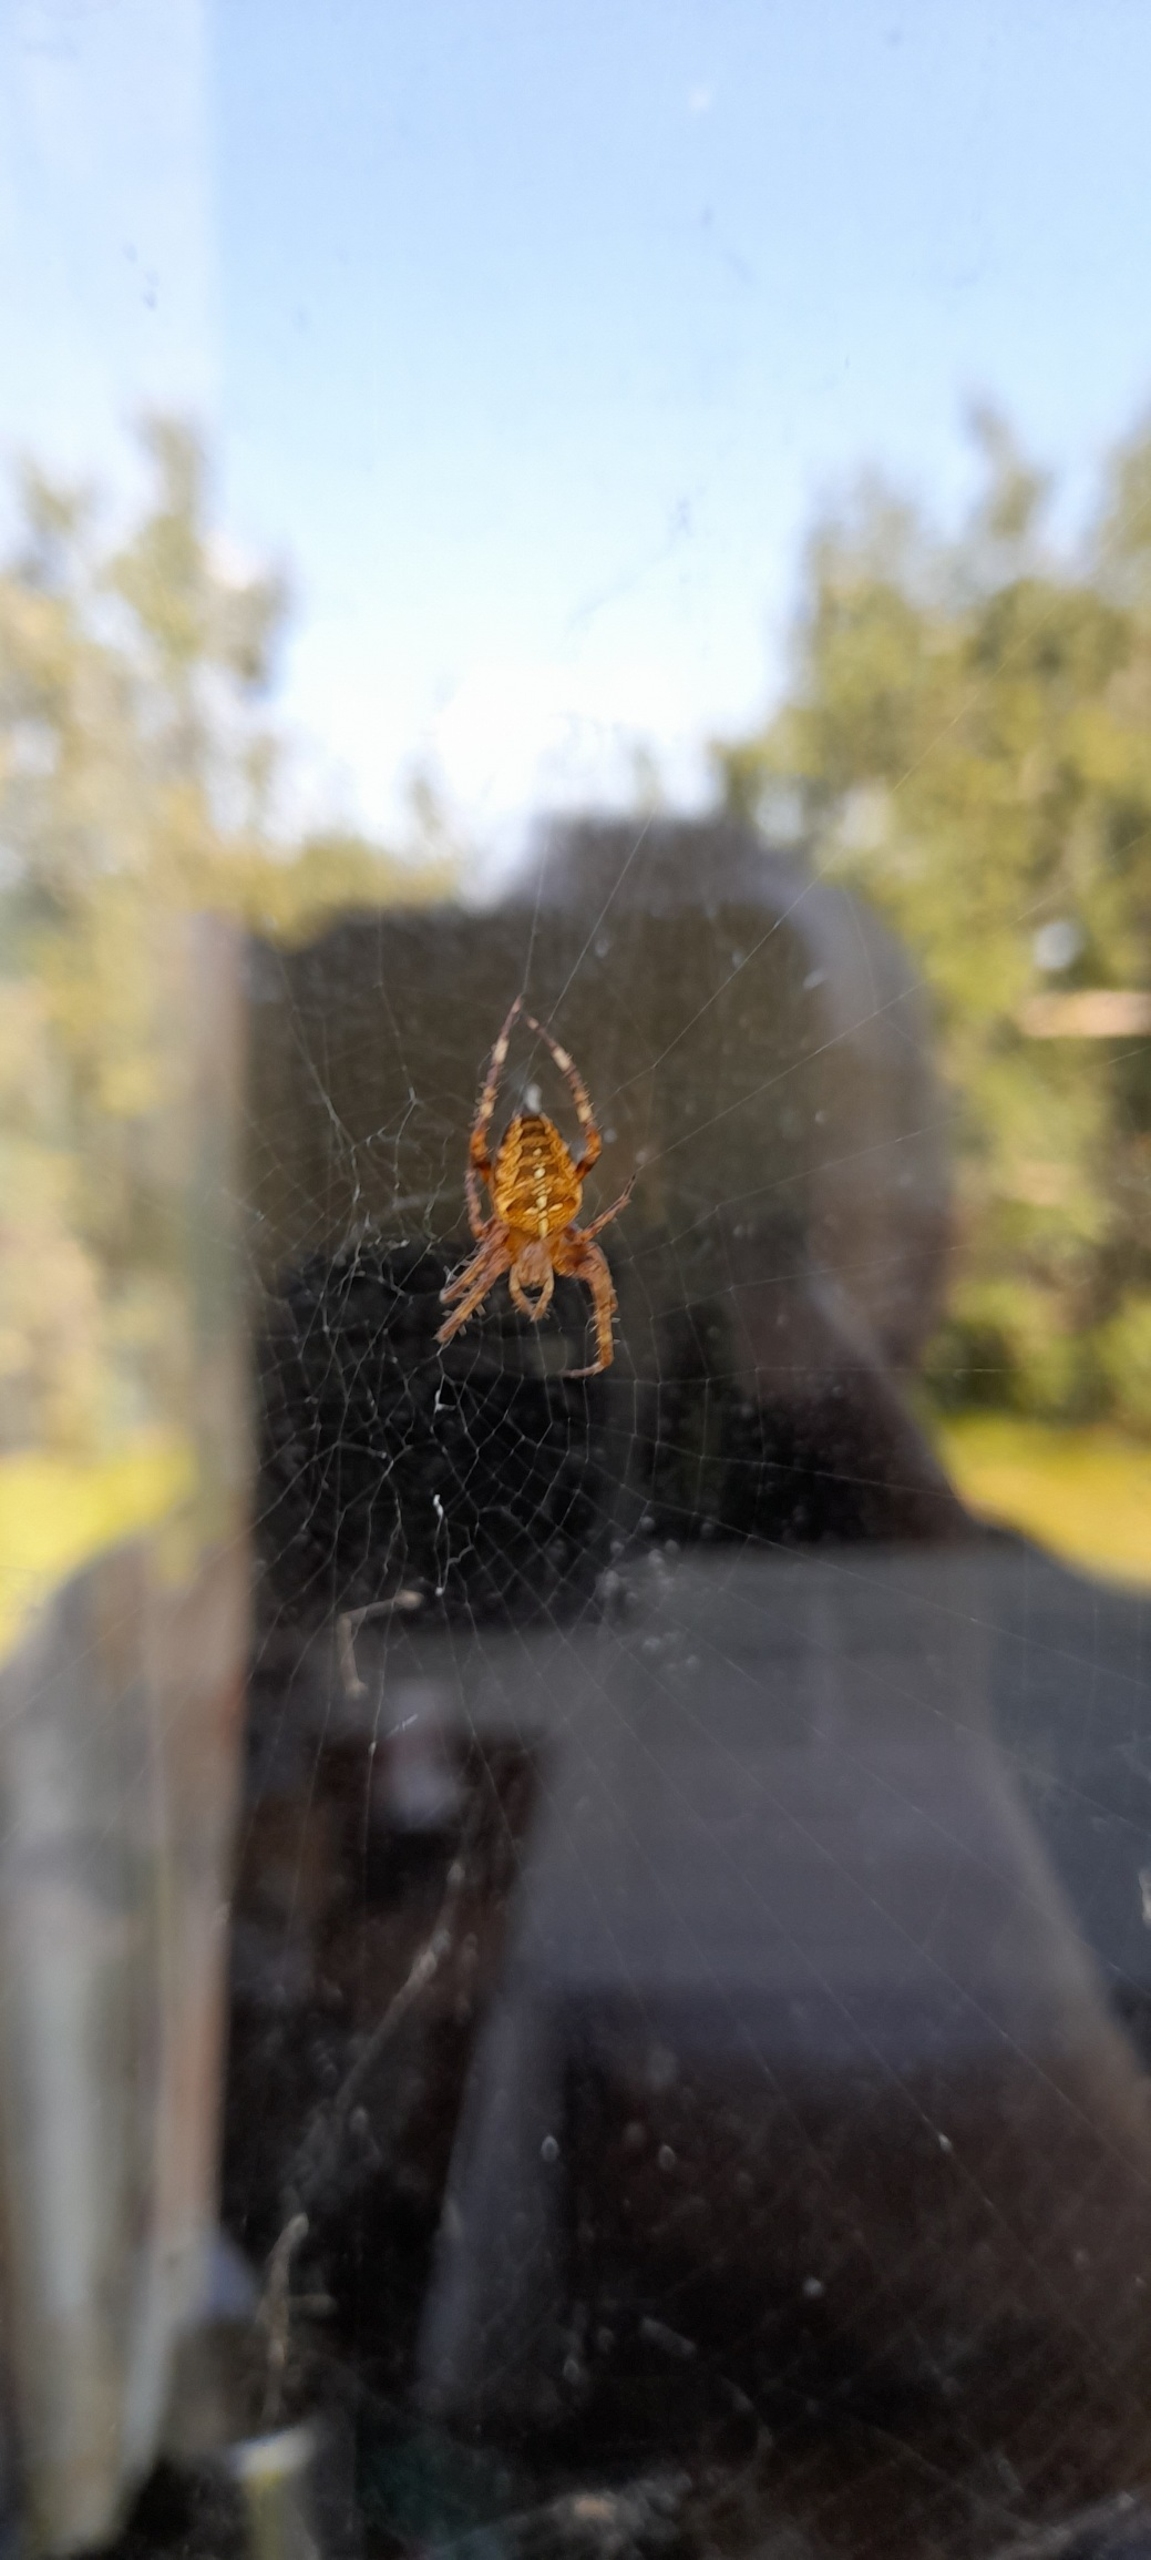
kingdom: Animalia
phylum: Arthropoda
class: Arachnida
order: Araneae
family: Araneidae
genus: Araneus
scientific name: Araneus diadematus
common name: Korsedderkop
